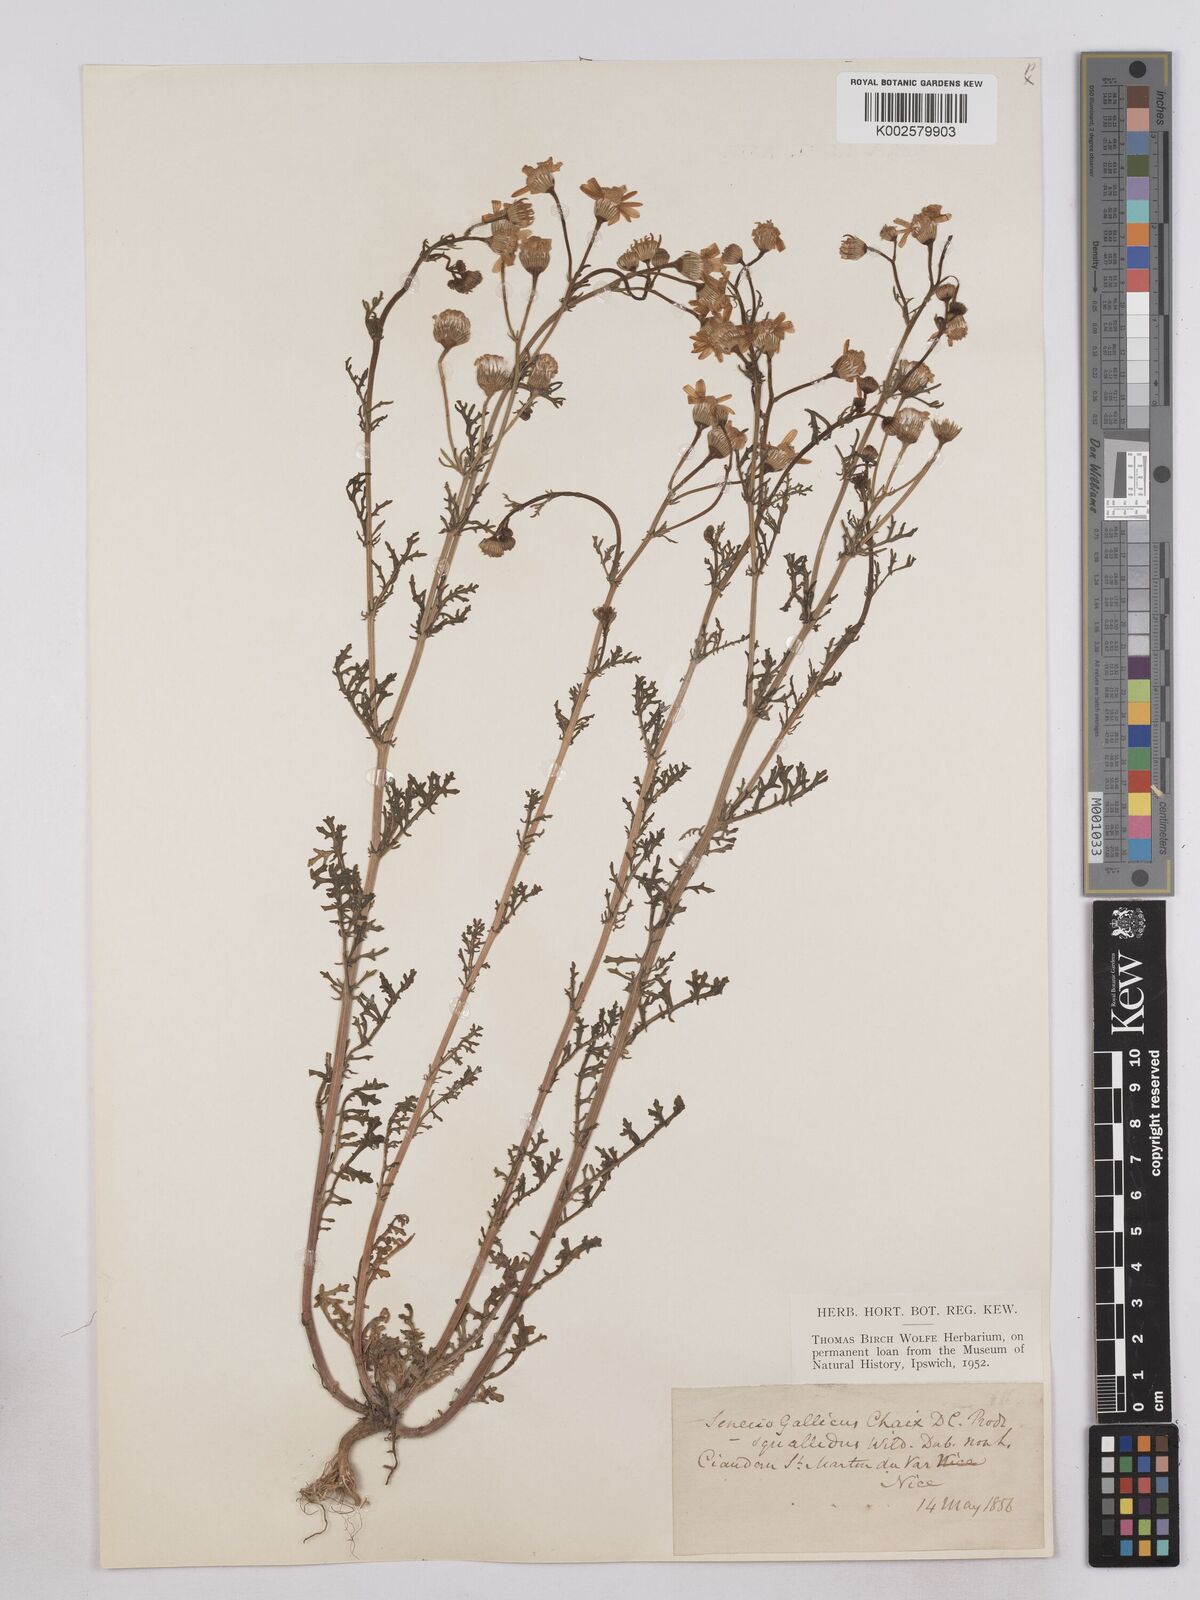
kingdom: Plantae
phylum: Tracheophyta
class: Magnoliopsida
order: Asterales
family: Asteraceae
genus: Senecio
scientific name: Senecio gallicus
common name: French groundsel
